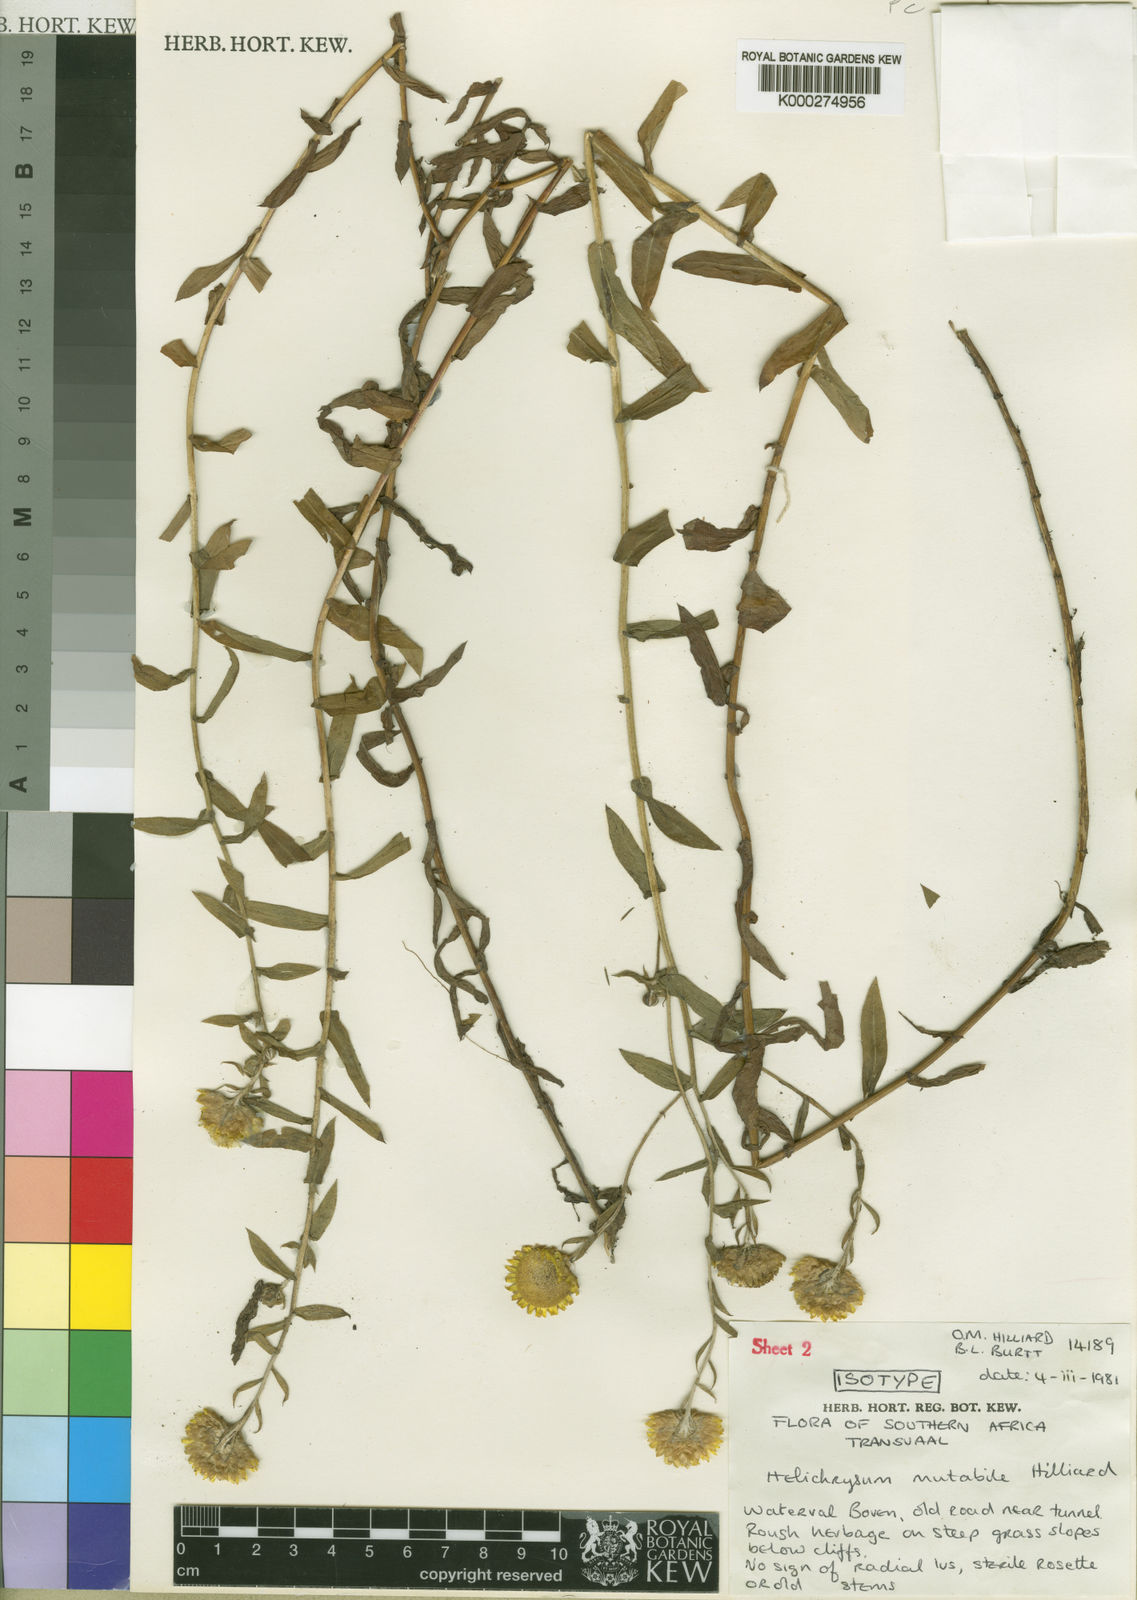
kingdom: Plantae
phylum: Tracheophyta
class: Magnoliopsida
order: Asterales
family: Asteraceae
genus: Helichrysum
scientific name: Helichrysum mutabile
